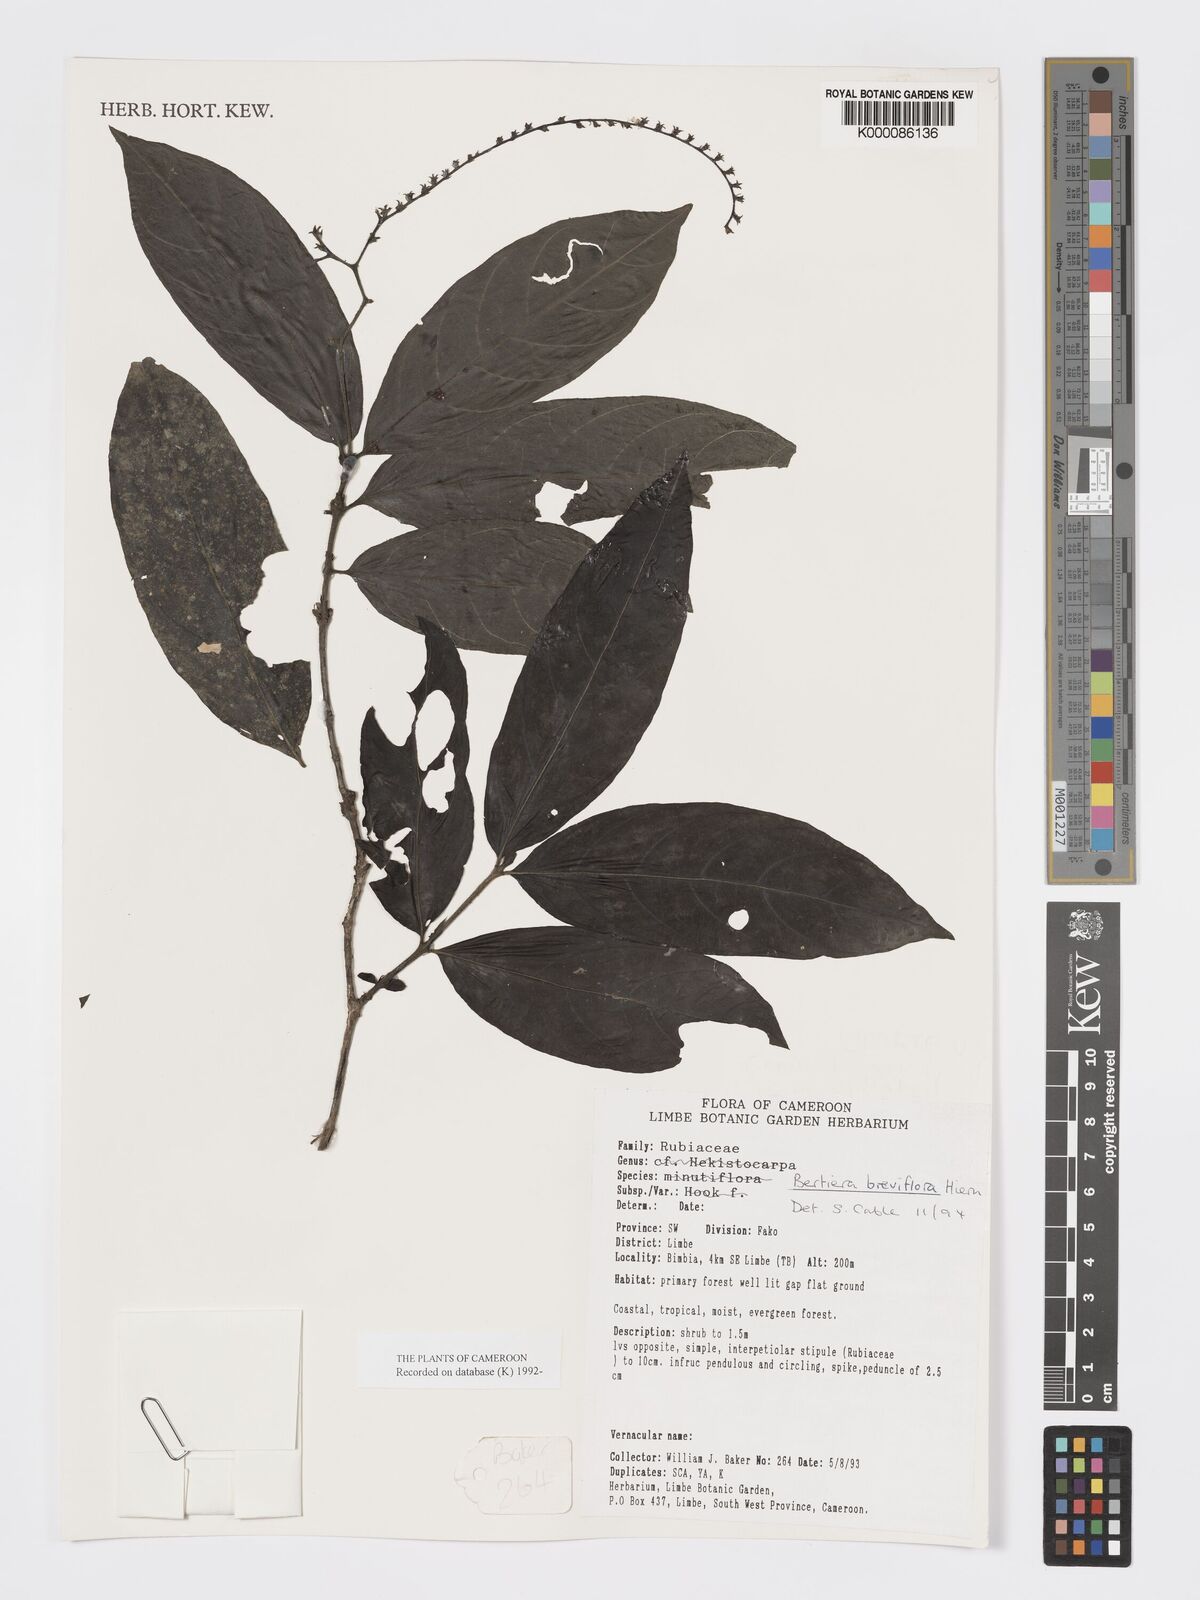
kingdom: Plantae
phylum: Tracheophyta
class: Magnoliopsida
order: Gentianales
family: Rubiaceae
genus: Bertiera
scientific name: Bertiera breviflora
